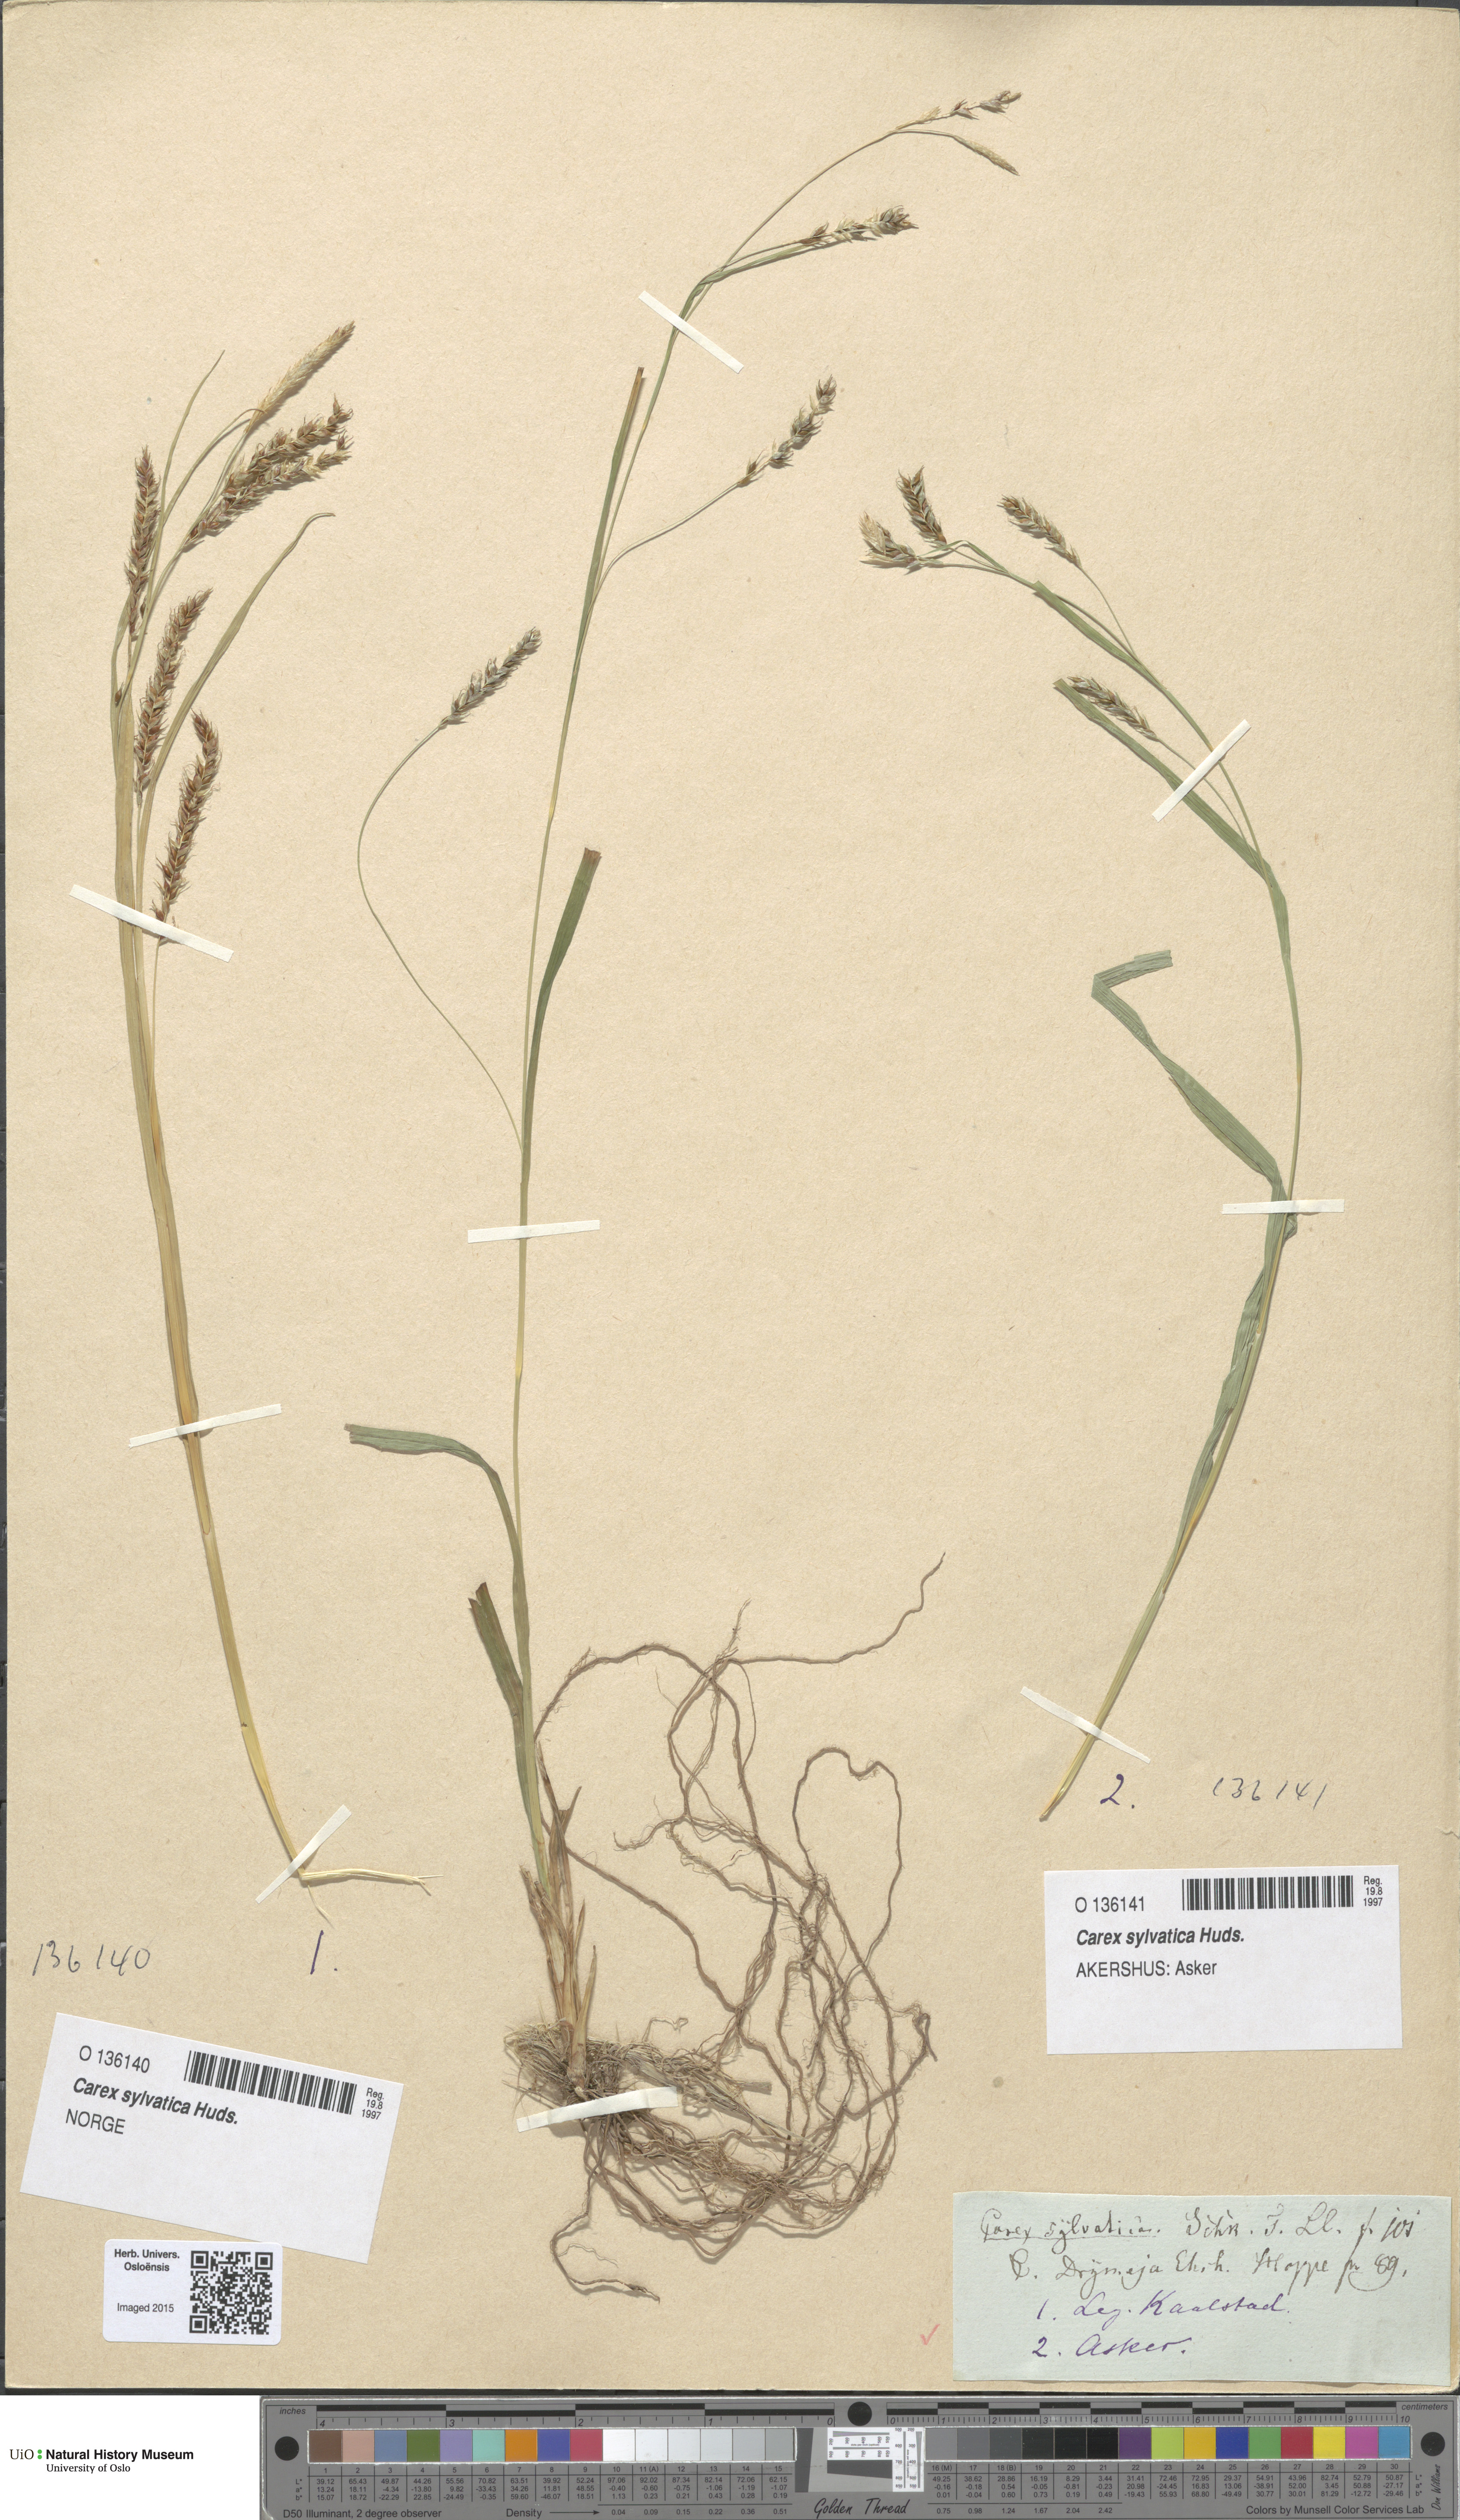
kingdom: Plantae
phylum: Tracheophyta
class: Liliopsida
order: Poales
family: Cyperaceae
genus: Carex
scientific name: Carex sylvatica
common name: Wood-sedge
